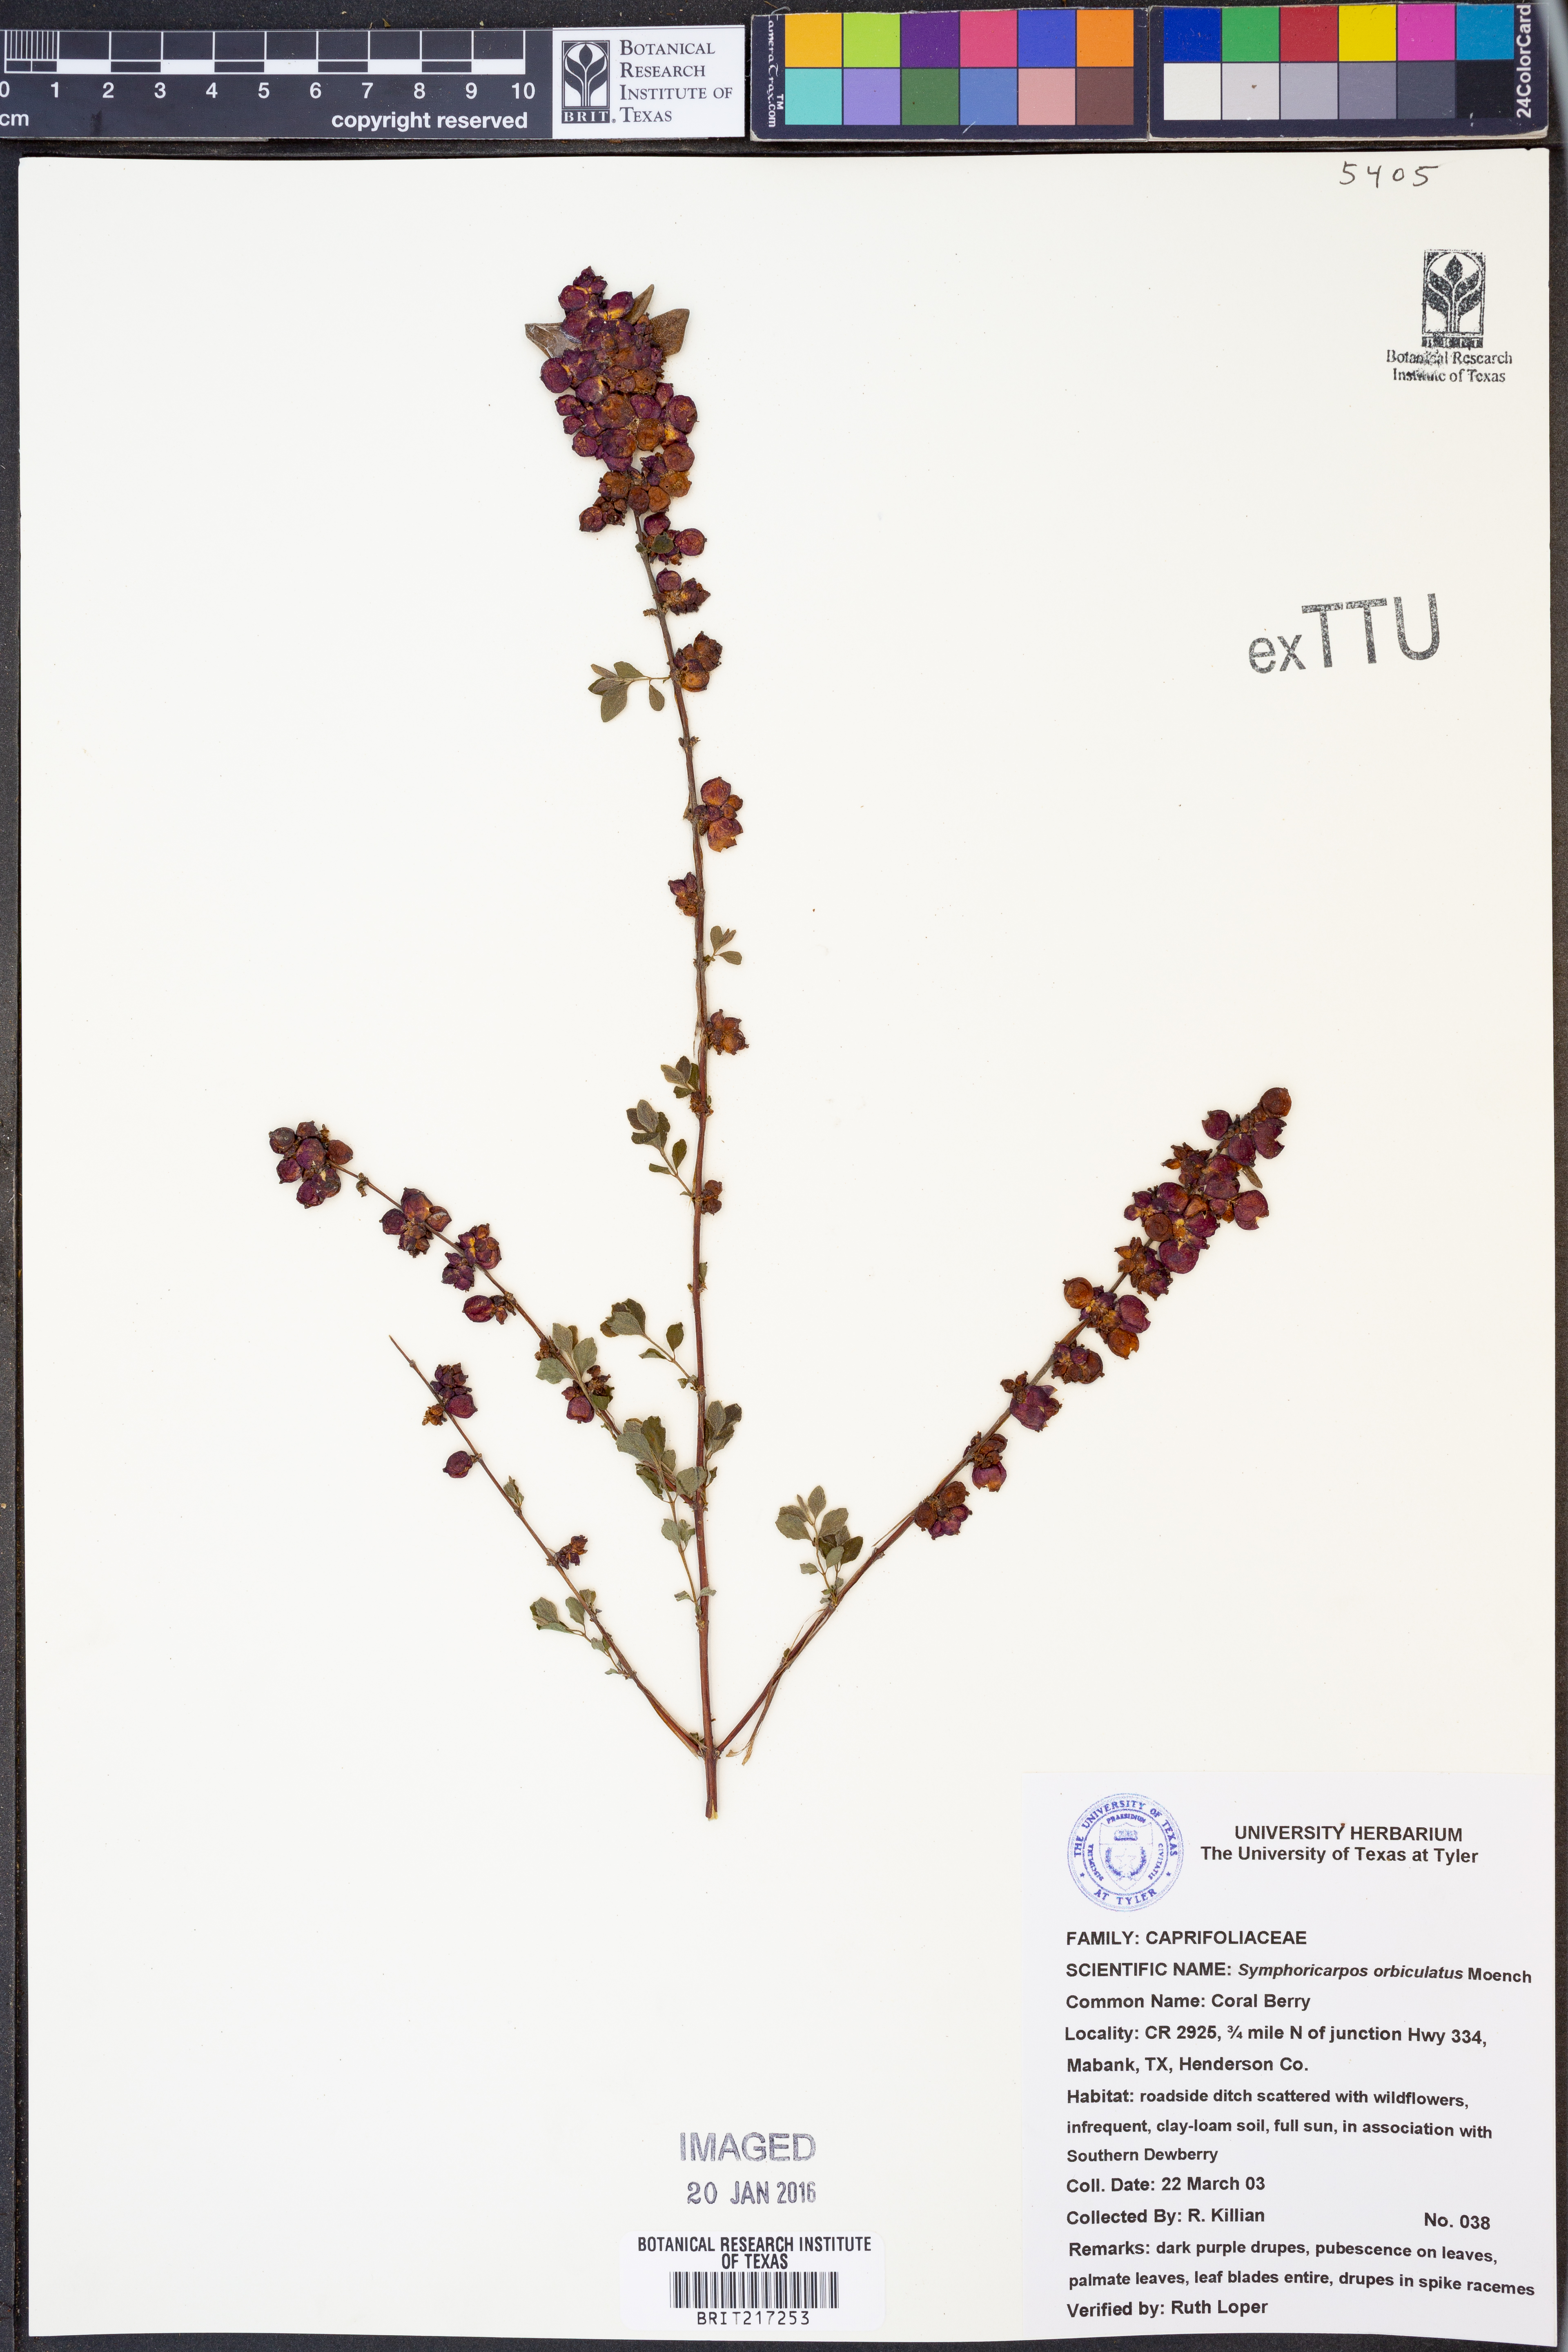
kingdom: Plantae
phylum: Tracheophyta
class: Magnoliopsida
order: Dipsacales
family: Caprifoliaceae
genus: Symphoricarpos
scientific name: Symphoricarpos orbiculatus
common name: Coralberry
